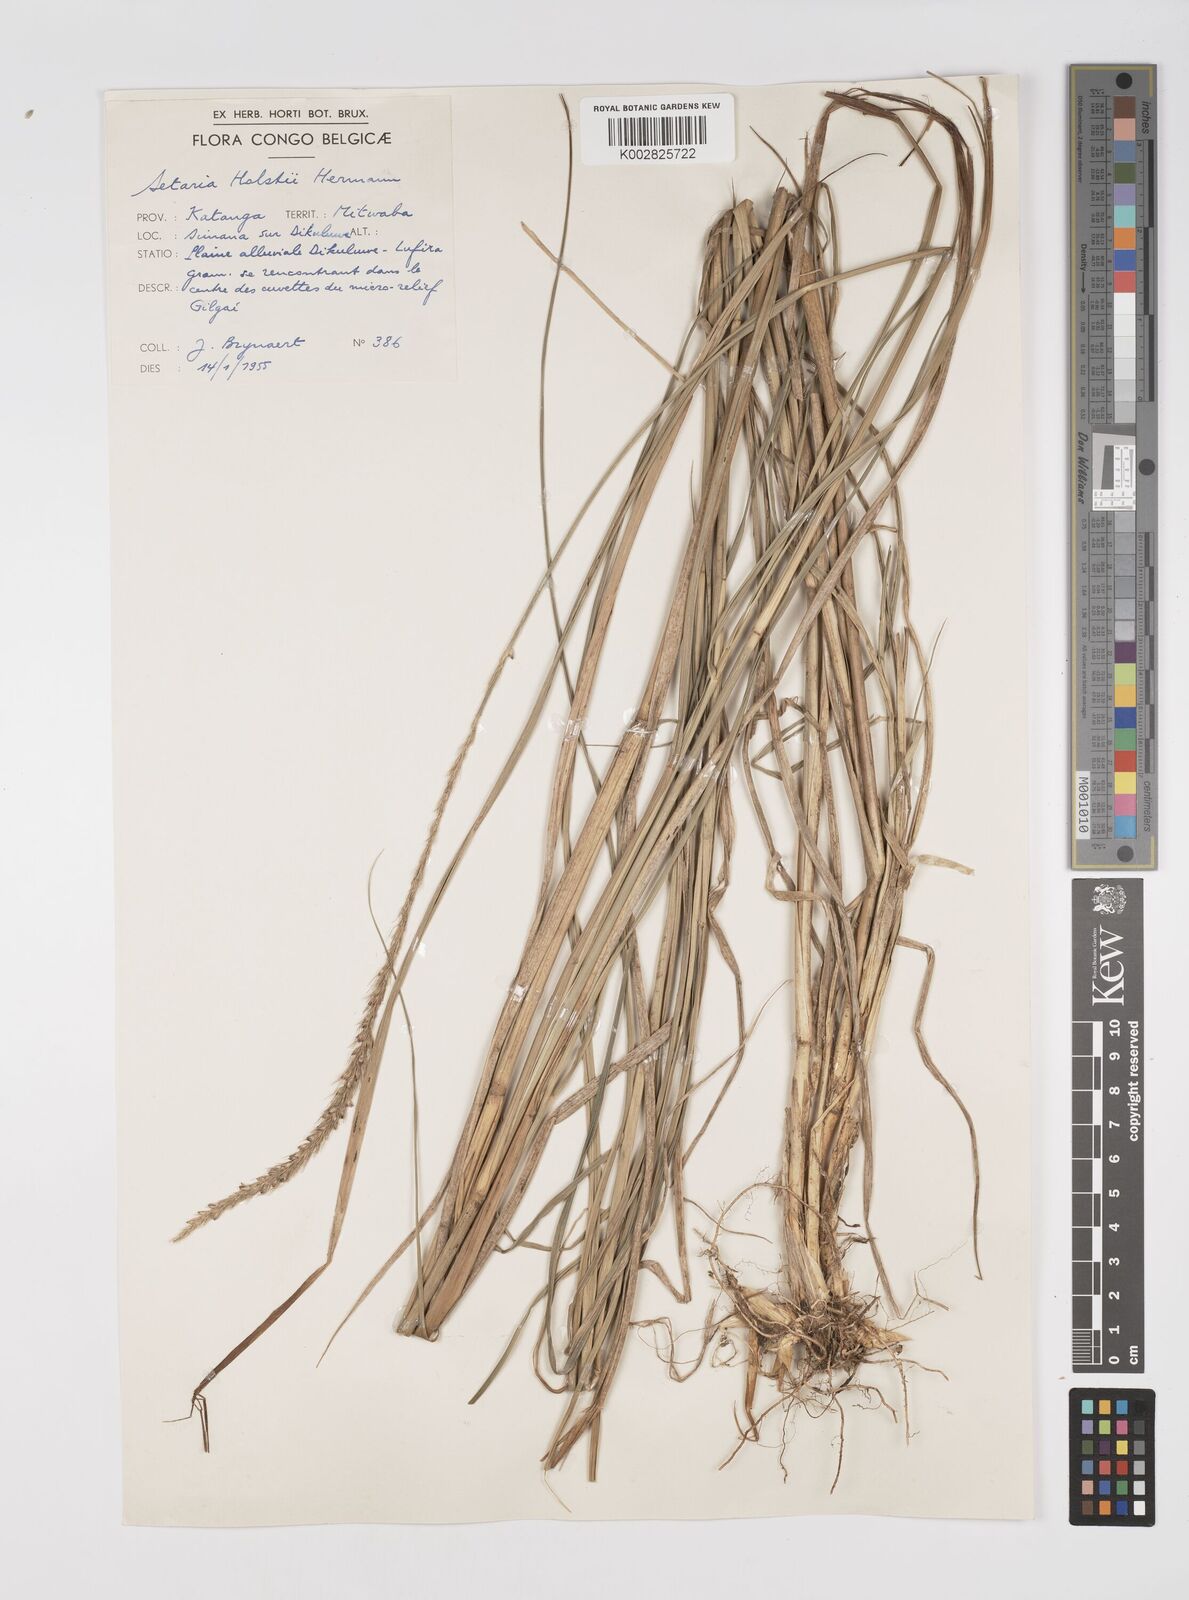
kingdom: Plantae
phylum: Tracheophyta
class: Liliopsida
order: Poales
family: Poaceae
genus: Setaria
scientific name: Setaria incrassata
